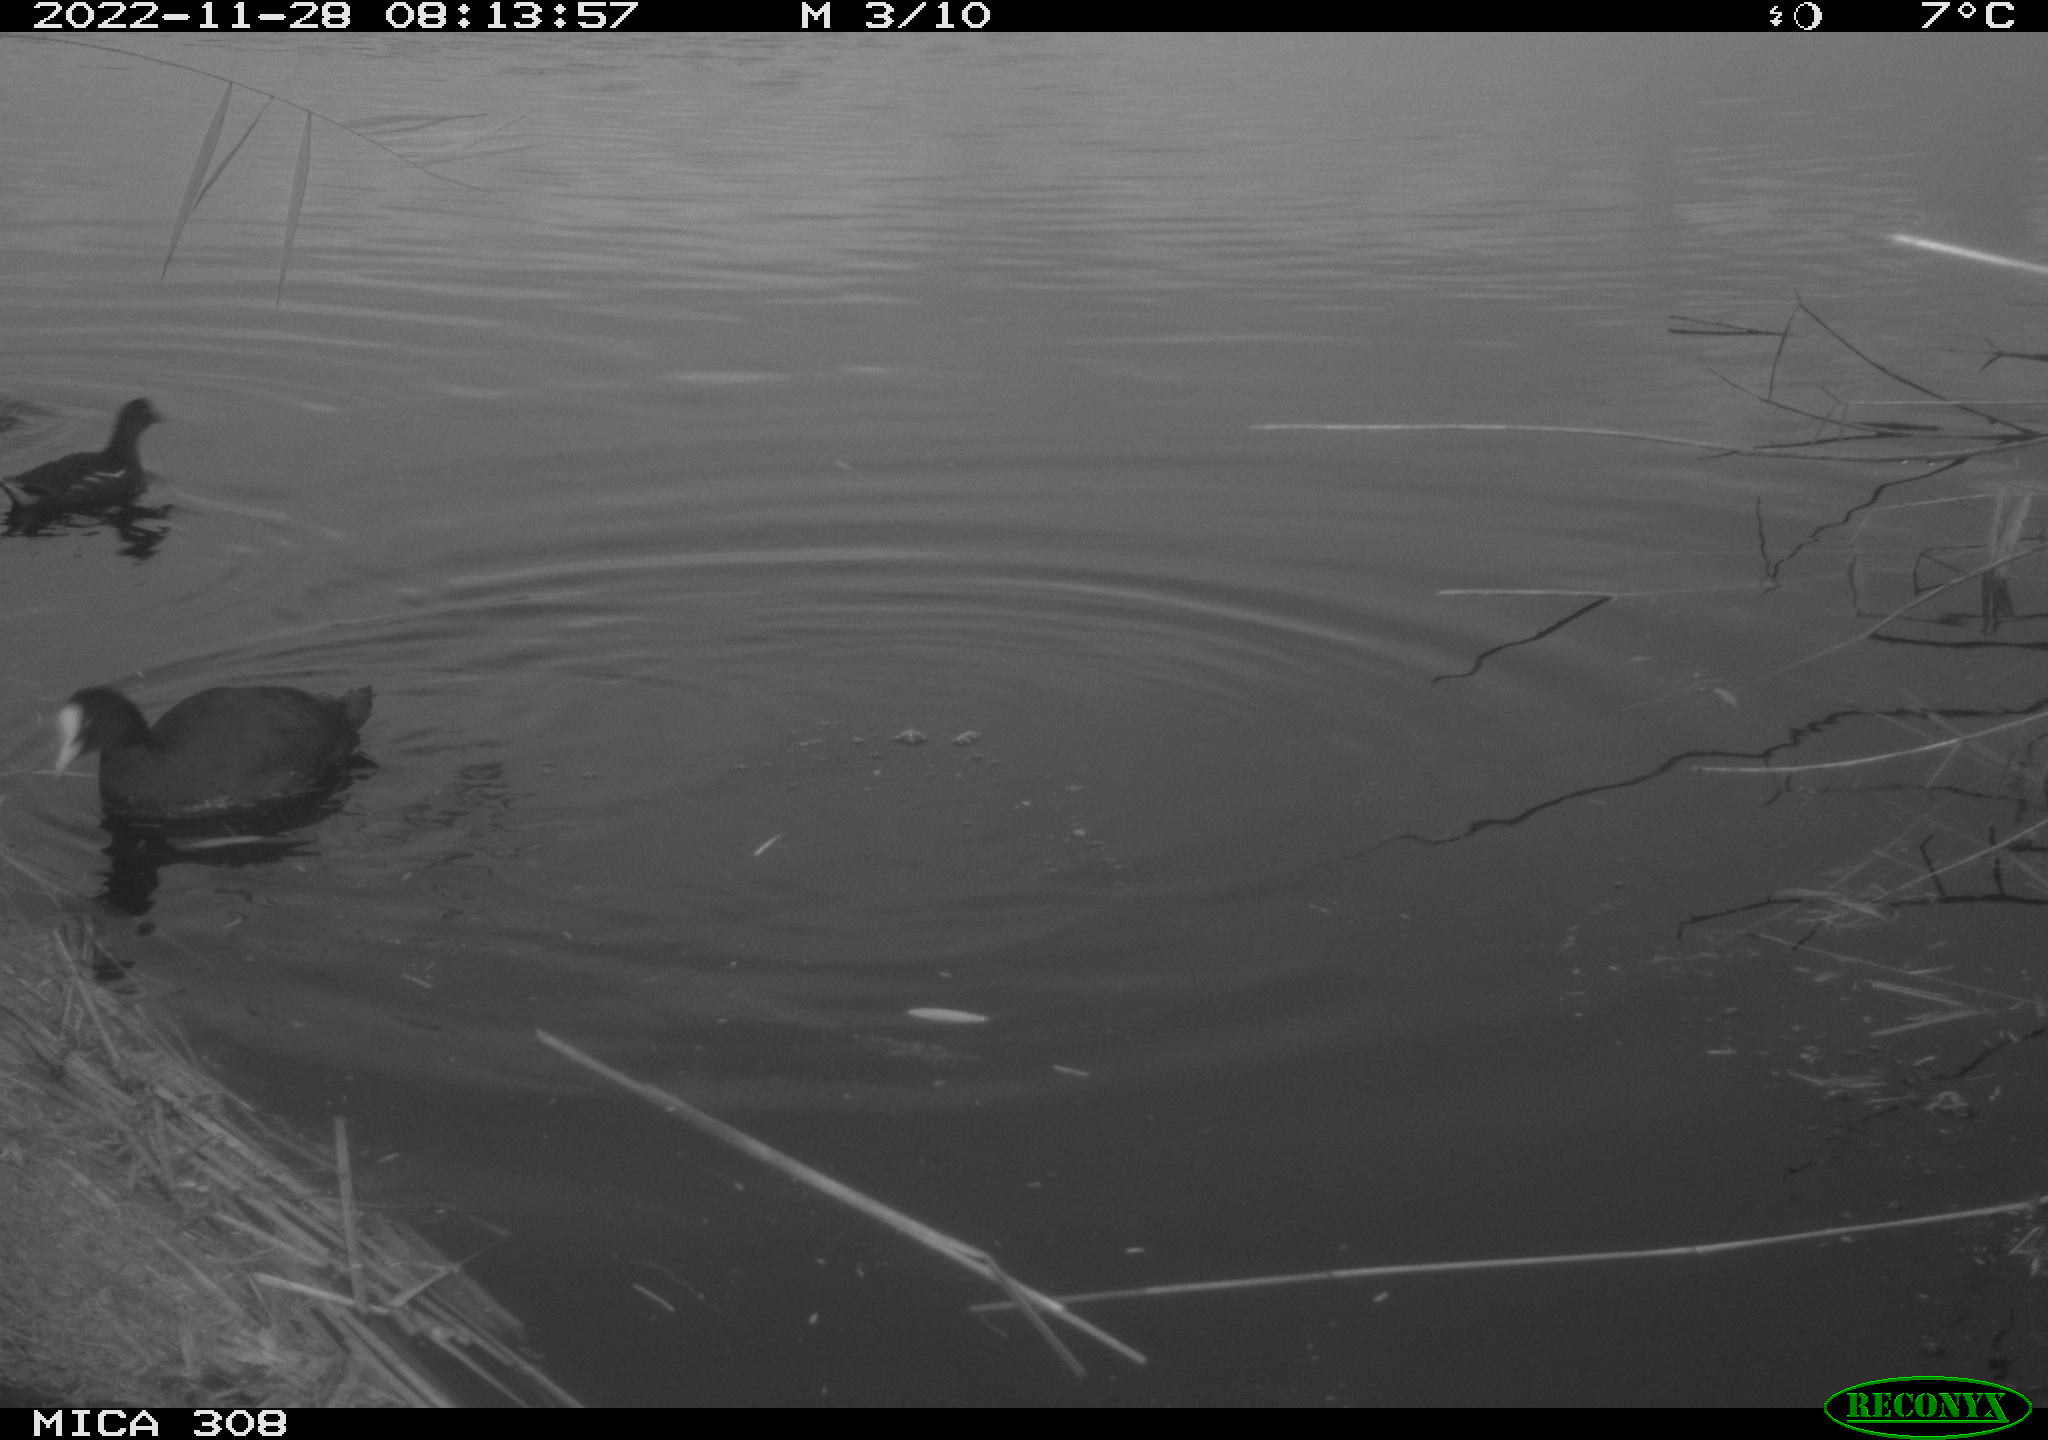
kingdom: Animalia
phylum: Chordata
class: Aves
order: Anseriformes
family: Anatidae
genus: Anas
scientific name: Anas
